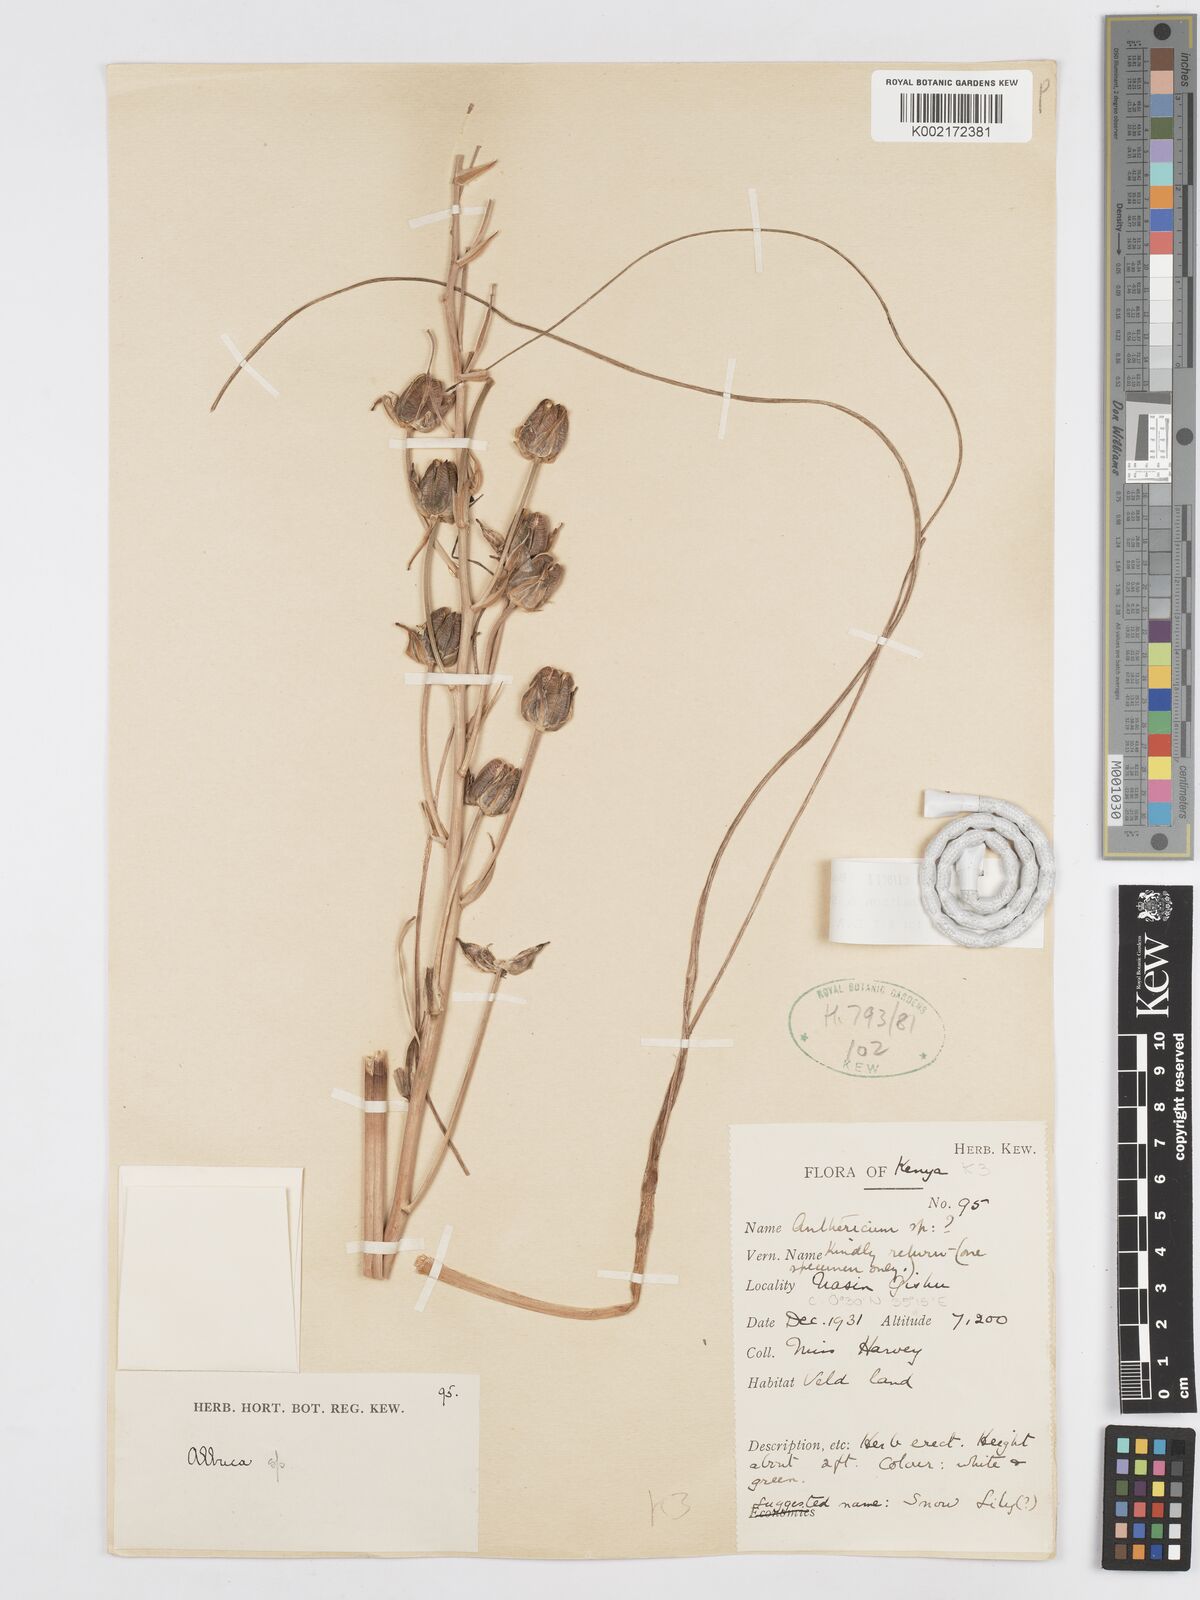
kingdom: Plantae
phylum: Tracheophyta
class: Liliopsida
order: Asparagales
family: Asparagaceae
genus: Albuca
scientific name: Albuca kirkii
